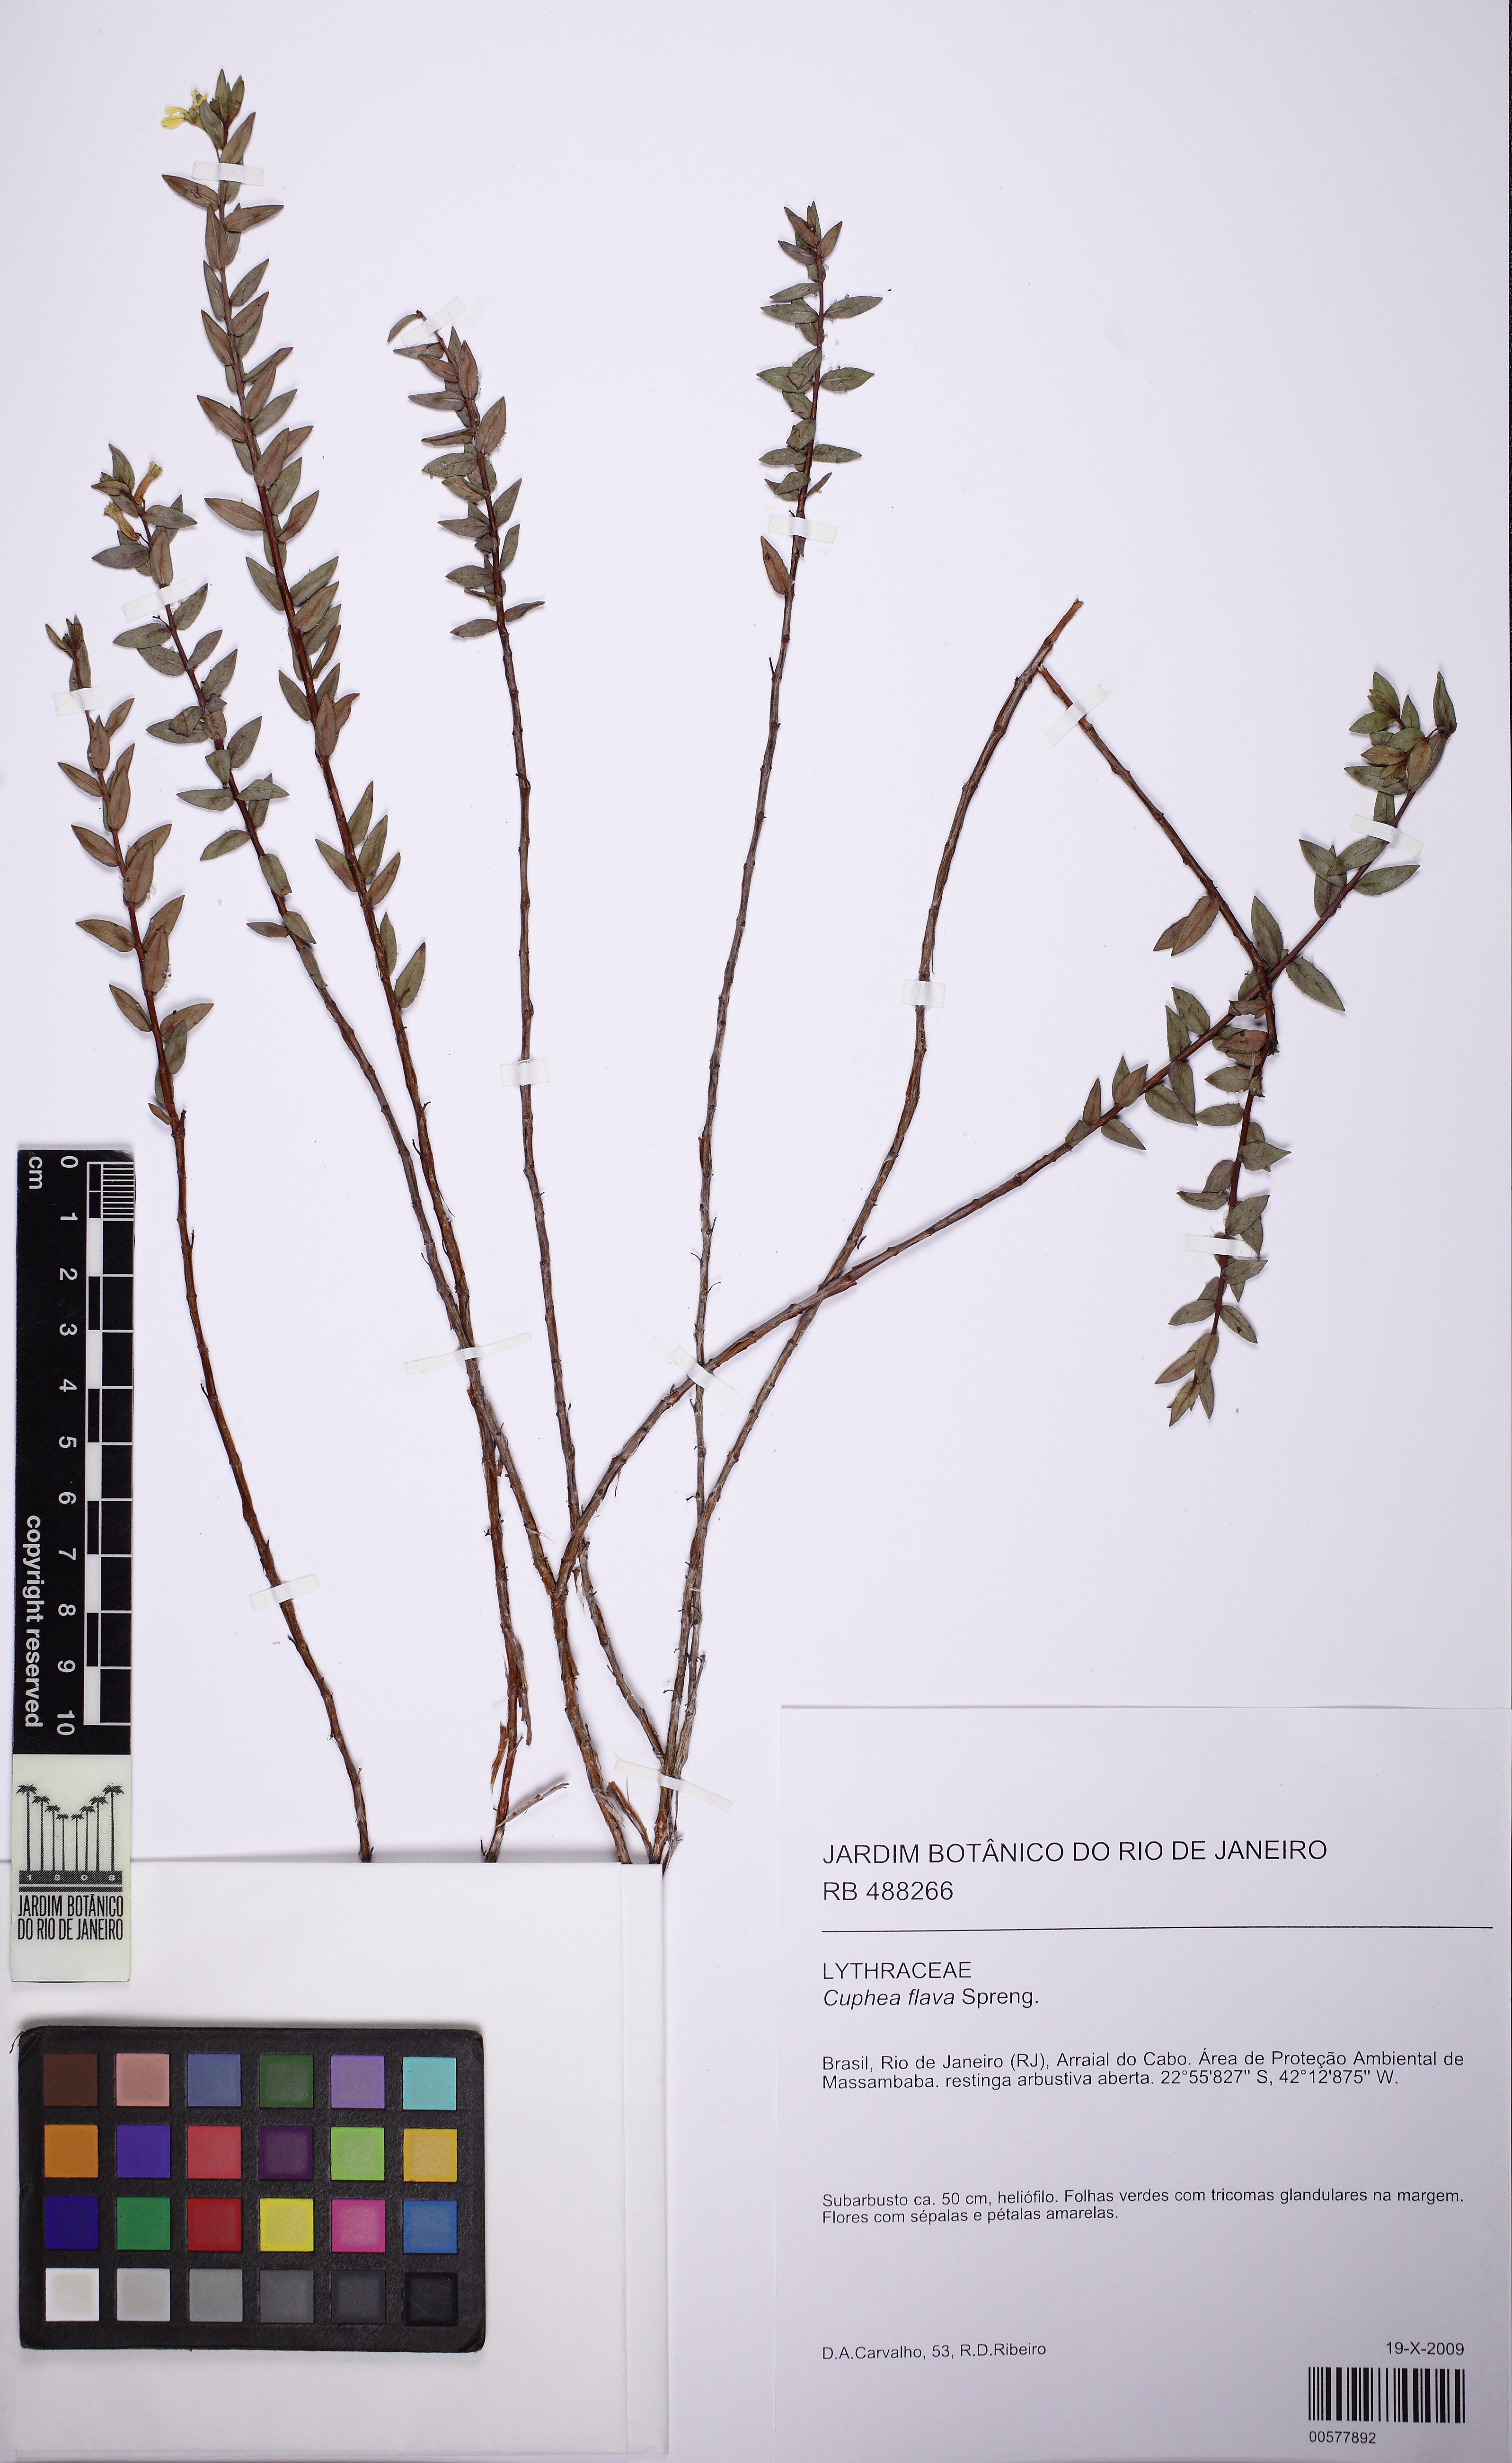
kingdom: Plantae
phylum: Tracheophyta
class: Magnoliopsida
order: Myrtales
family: Lythraceae
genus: Cuphea
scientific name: Cuphea flava
